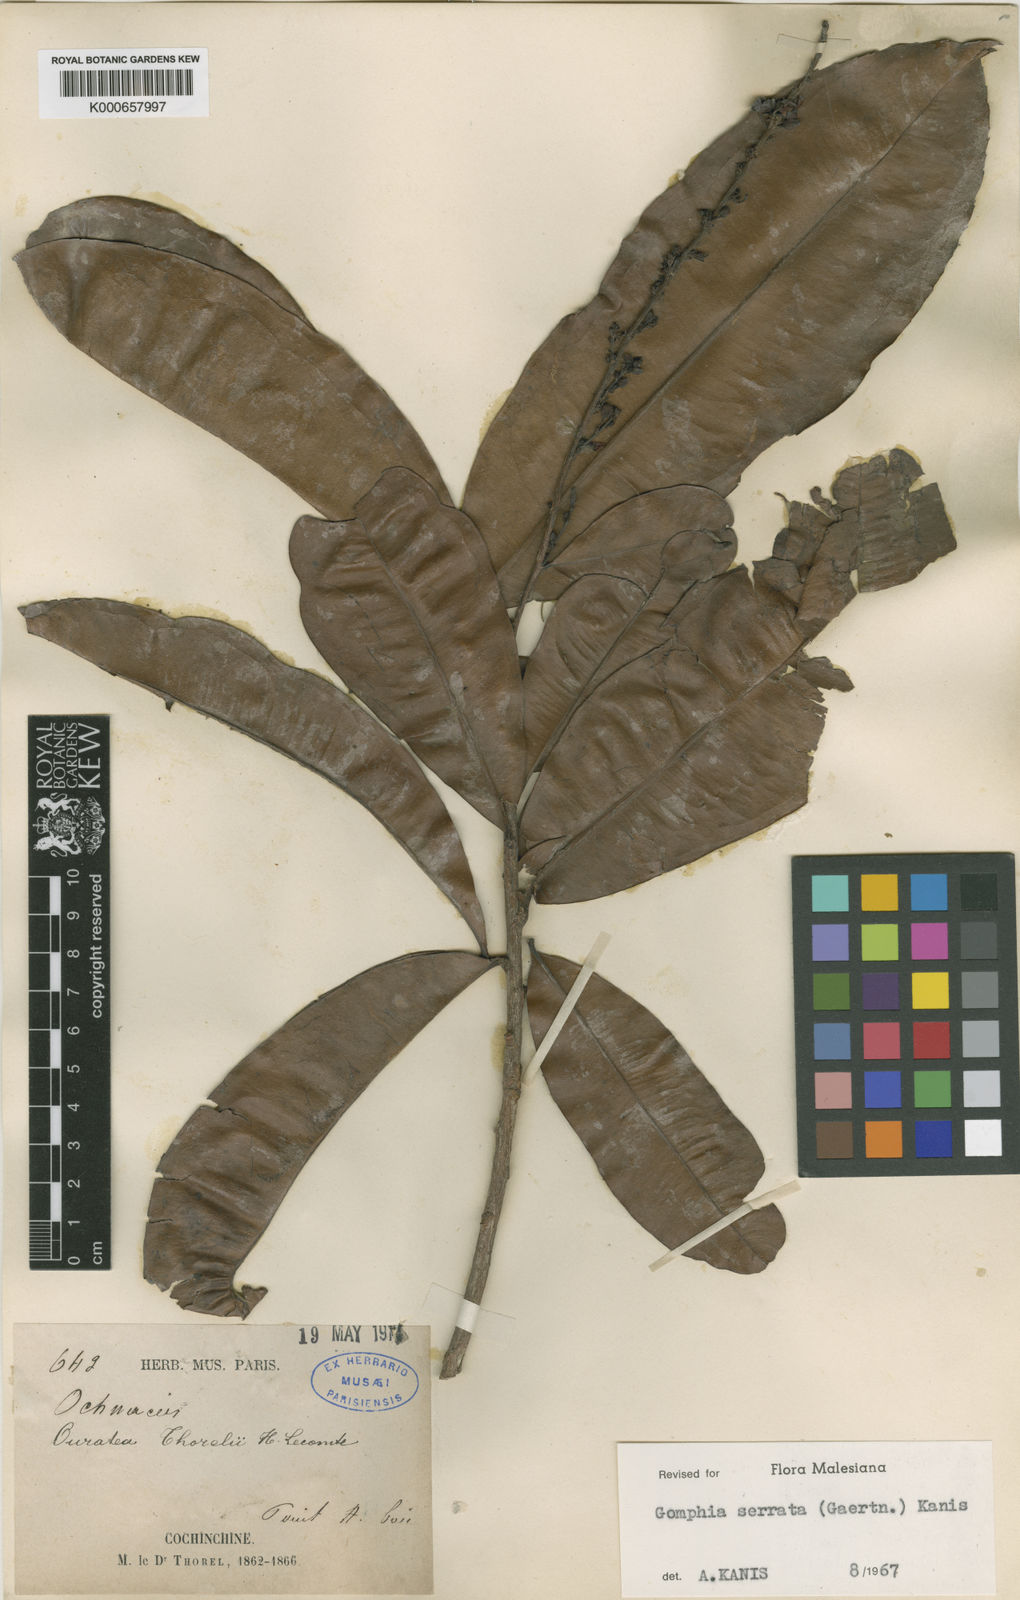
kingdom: Plantae
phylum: Tracheophyta
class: Magnoliopsida
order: Malpighiales
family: Ochnaceae
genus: Gomphia
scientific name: Gomphia serrata
